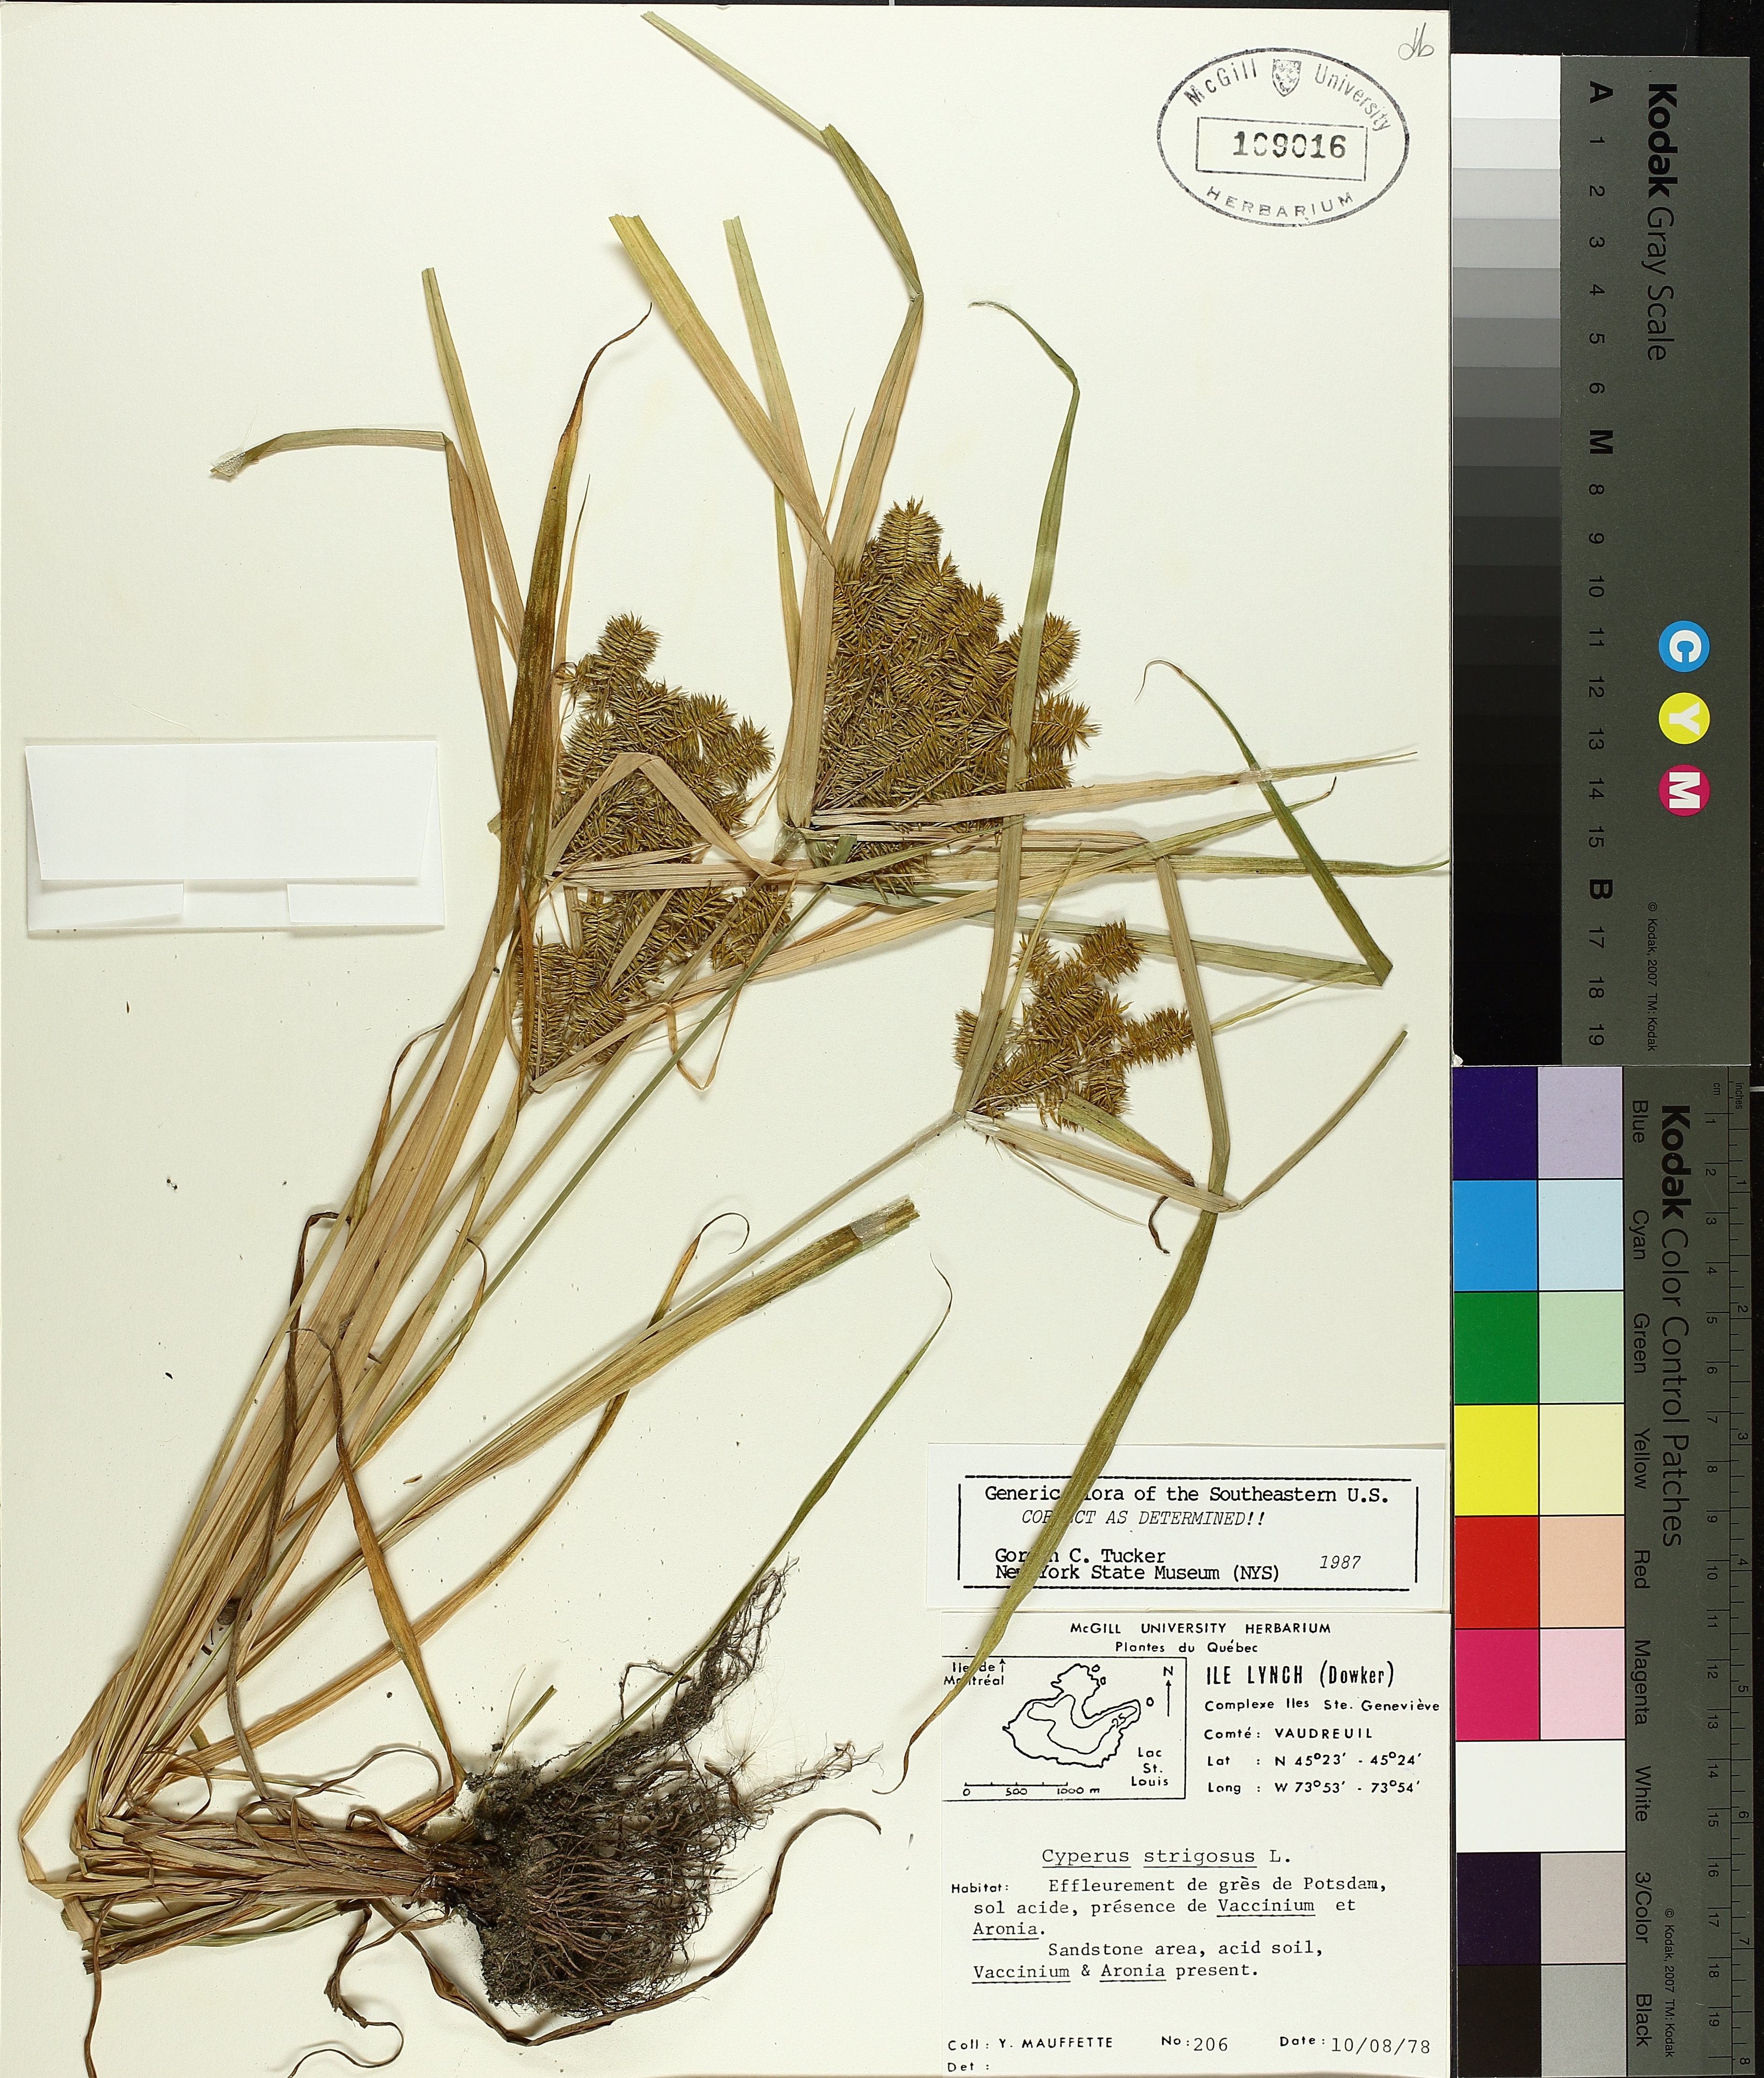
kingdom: Plantae
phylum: Tracheophyta
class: Liliopsida
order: Poales
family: Cyperaceae
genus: Cyperus
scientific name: Cyperus strigosus
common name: False nutsedge
